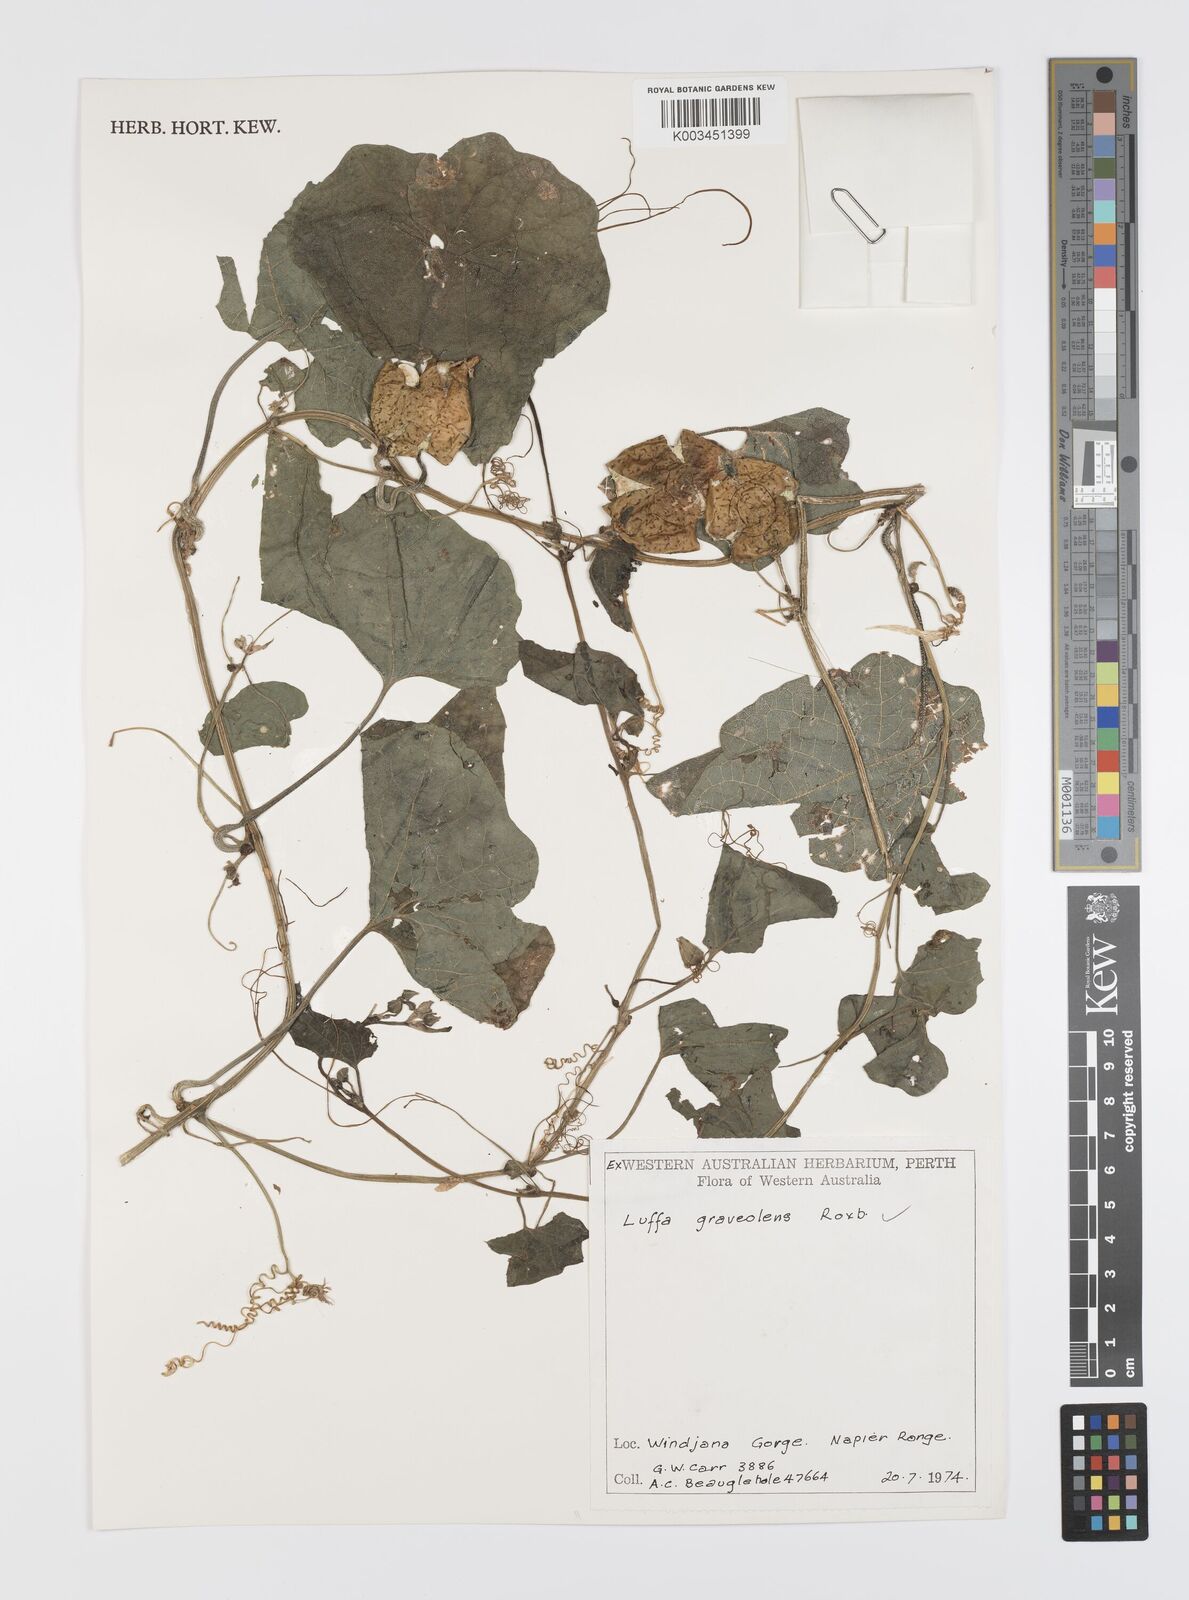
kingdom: Plantae
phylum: Tracheophyta
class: Magnoliopsida
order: Cucurbitales
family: Cucurbitaceae
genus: Luffa
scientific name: Luffa graveolens
